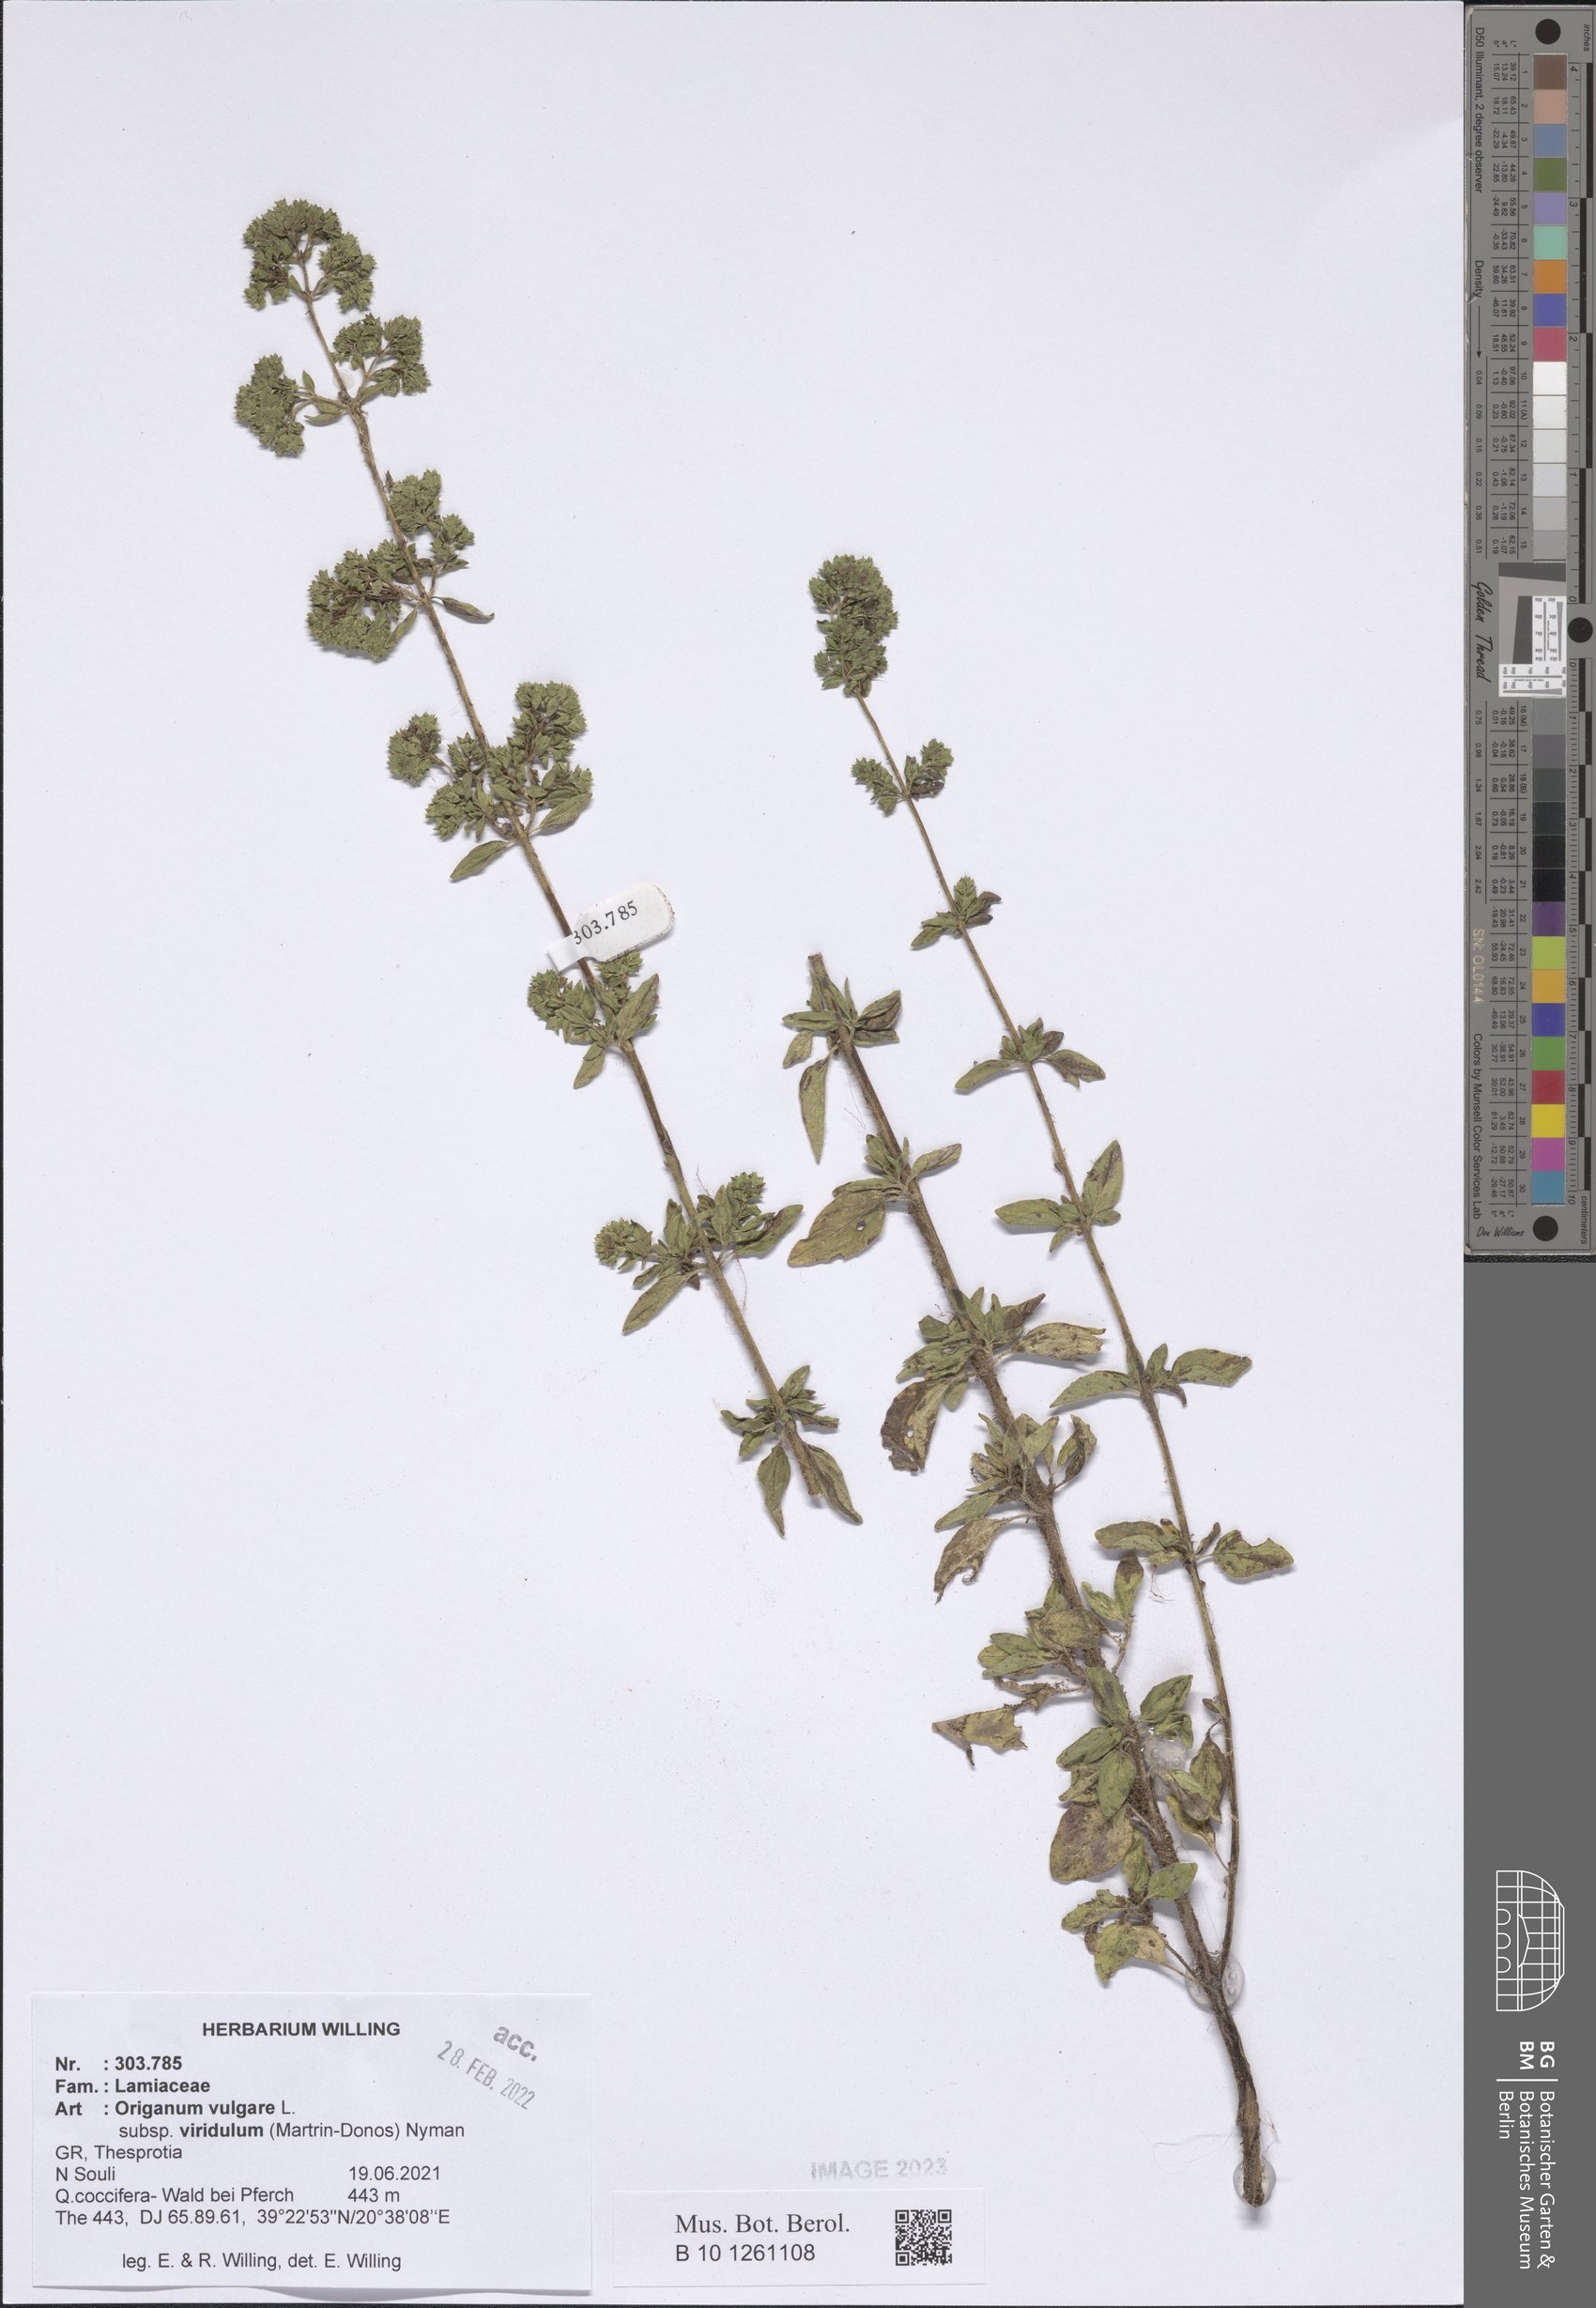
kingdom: Plantae
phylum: Tracheophyta
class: Magnoliopsida
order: Lamiales
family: Lamiaceae
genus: Origanum
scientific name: Origanum vulgare
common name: Wild marjoram
